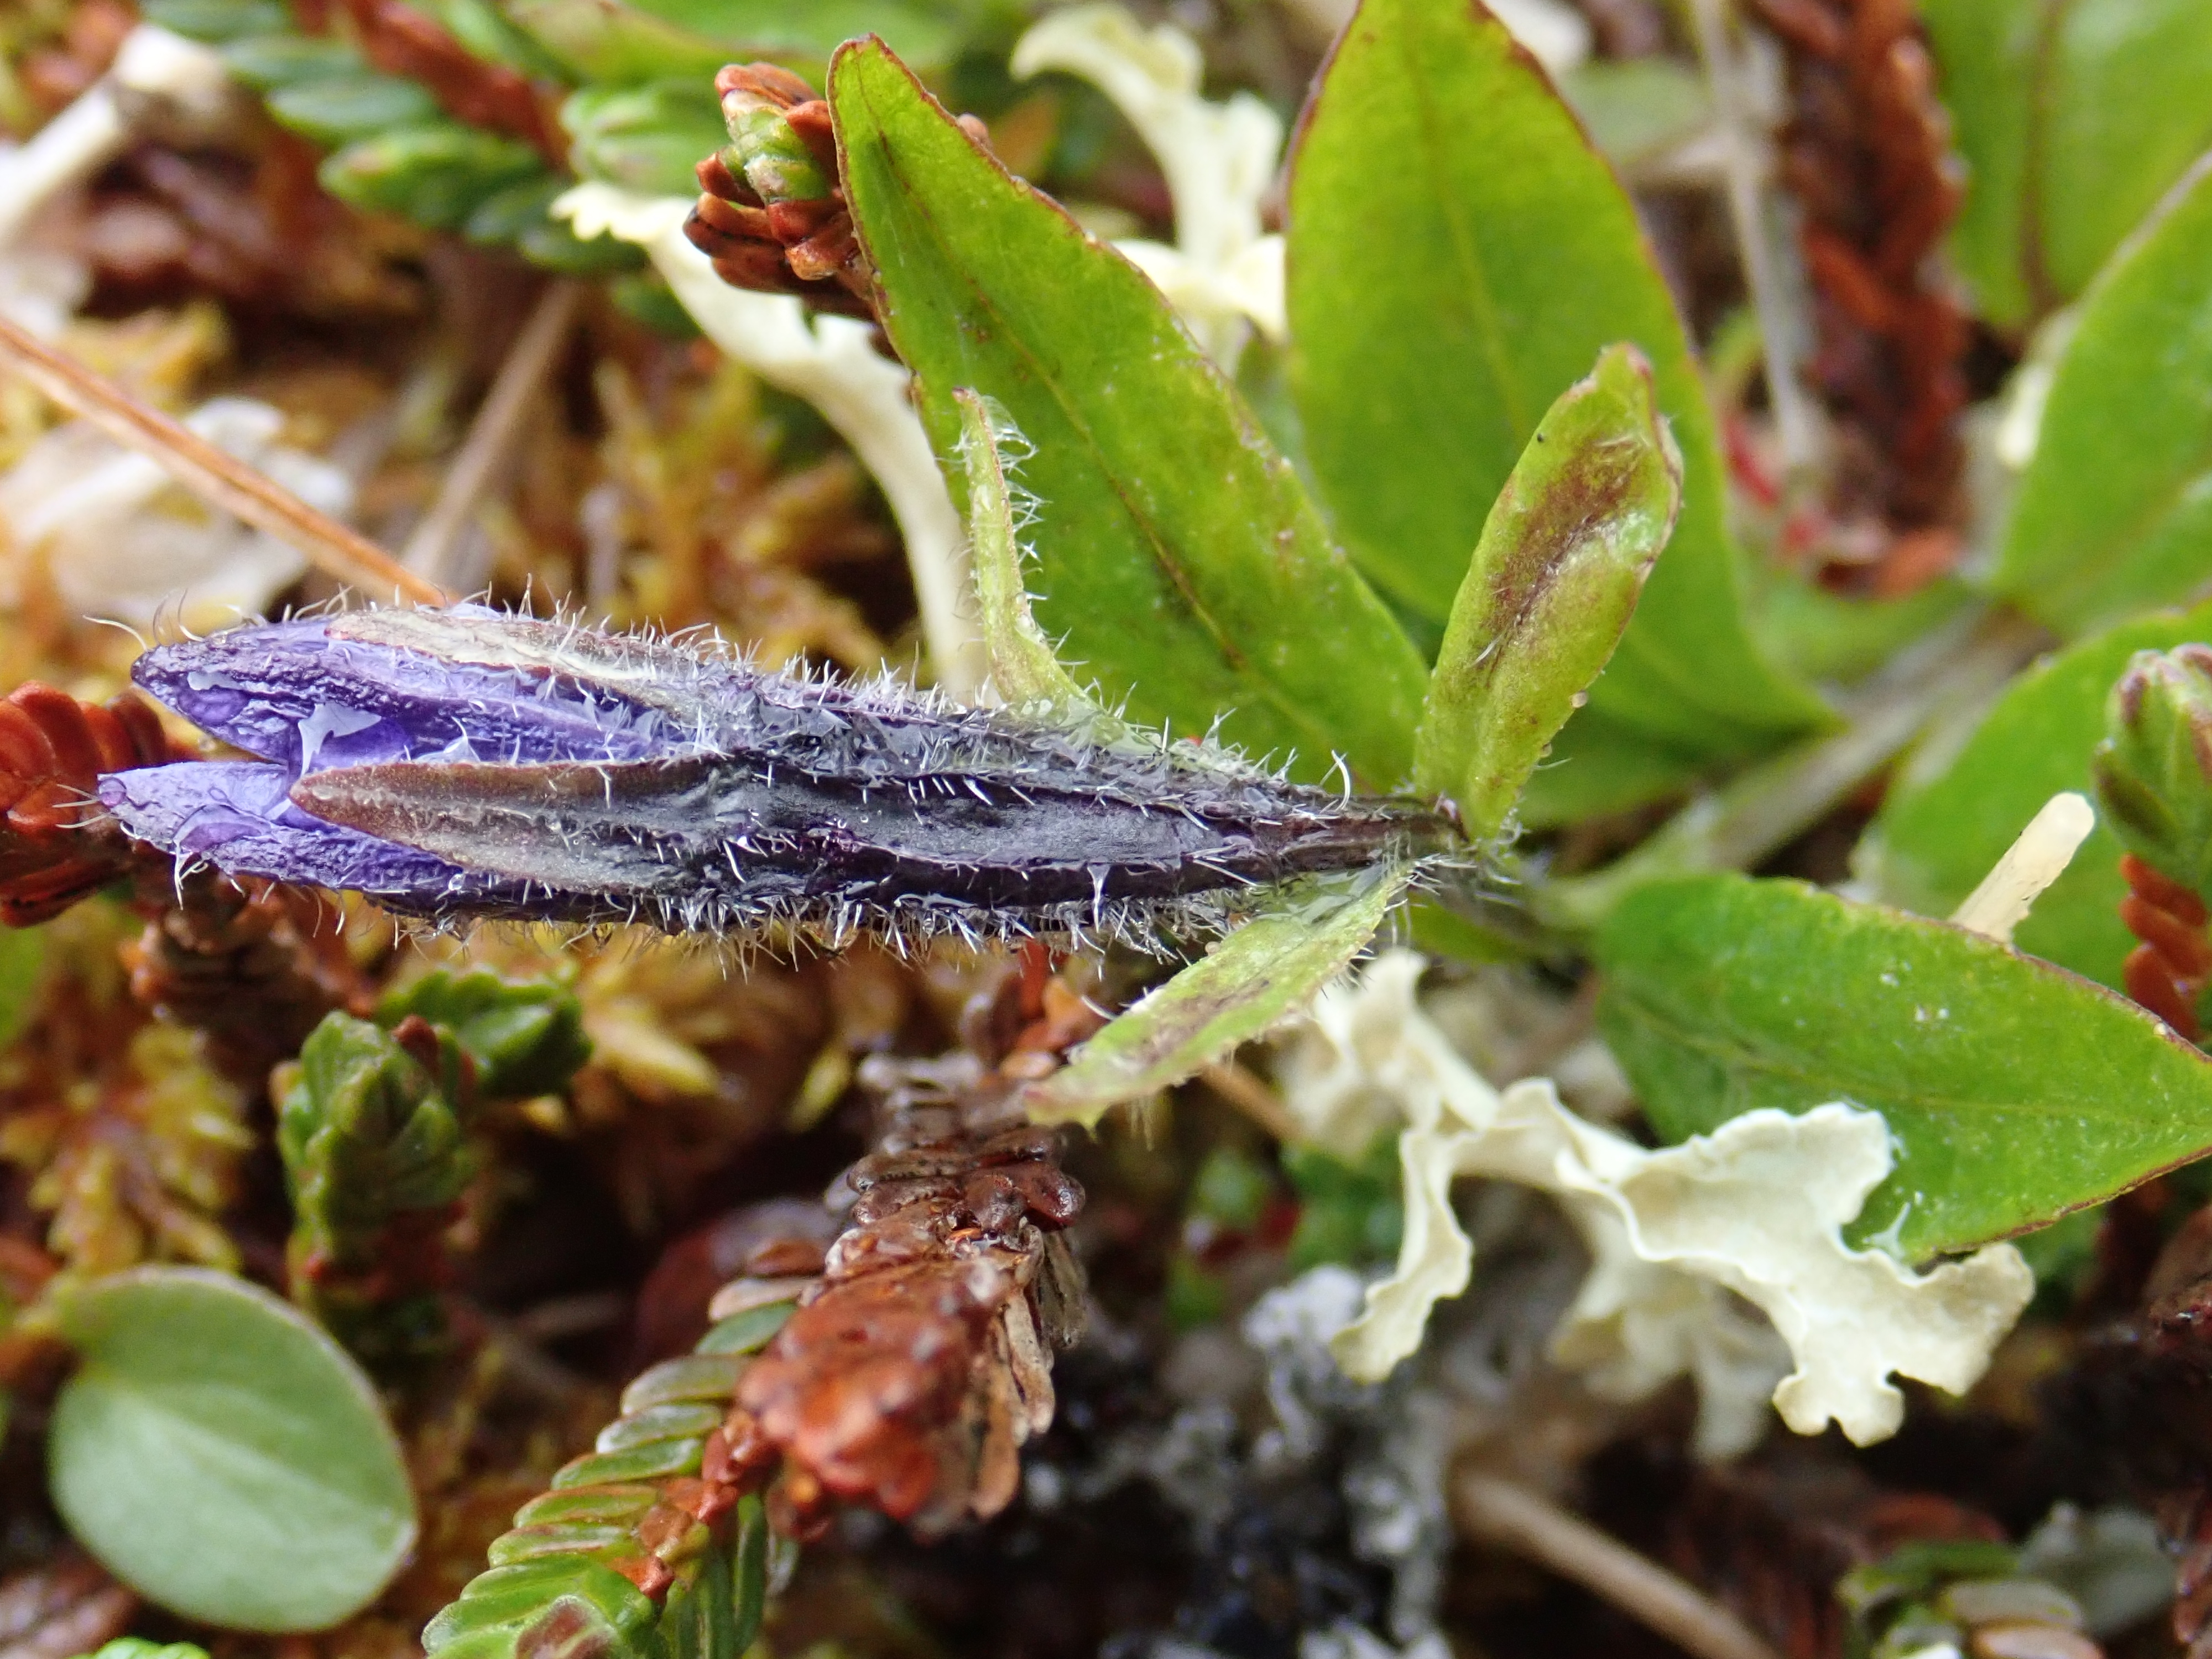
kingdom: Plantae
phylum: Tracheophyta
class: Magnoliopsida
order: Asterales
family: Campanulaceae
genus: Melanocalyx
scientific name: Melanocalyx uniflora
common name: Alpine harebell
